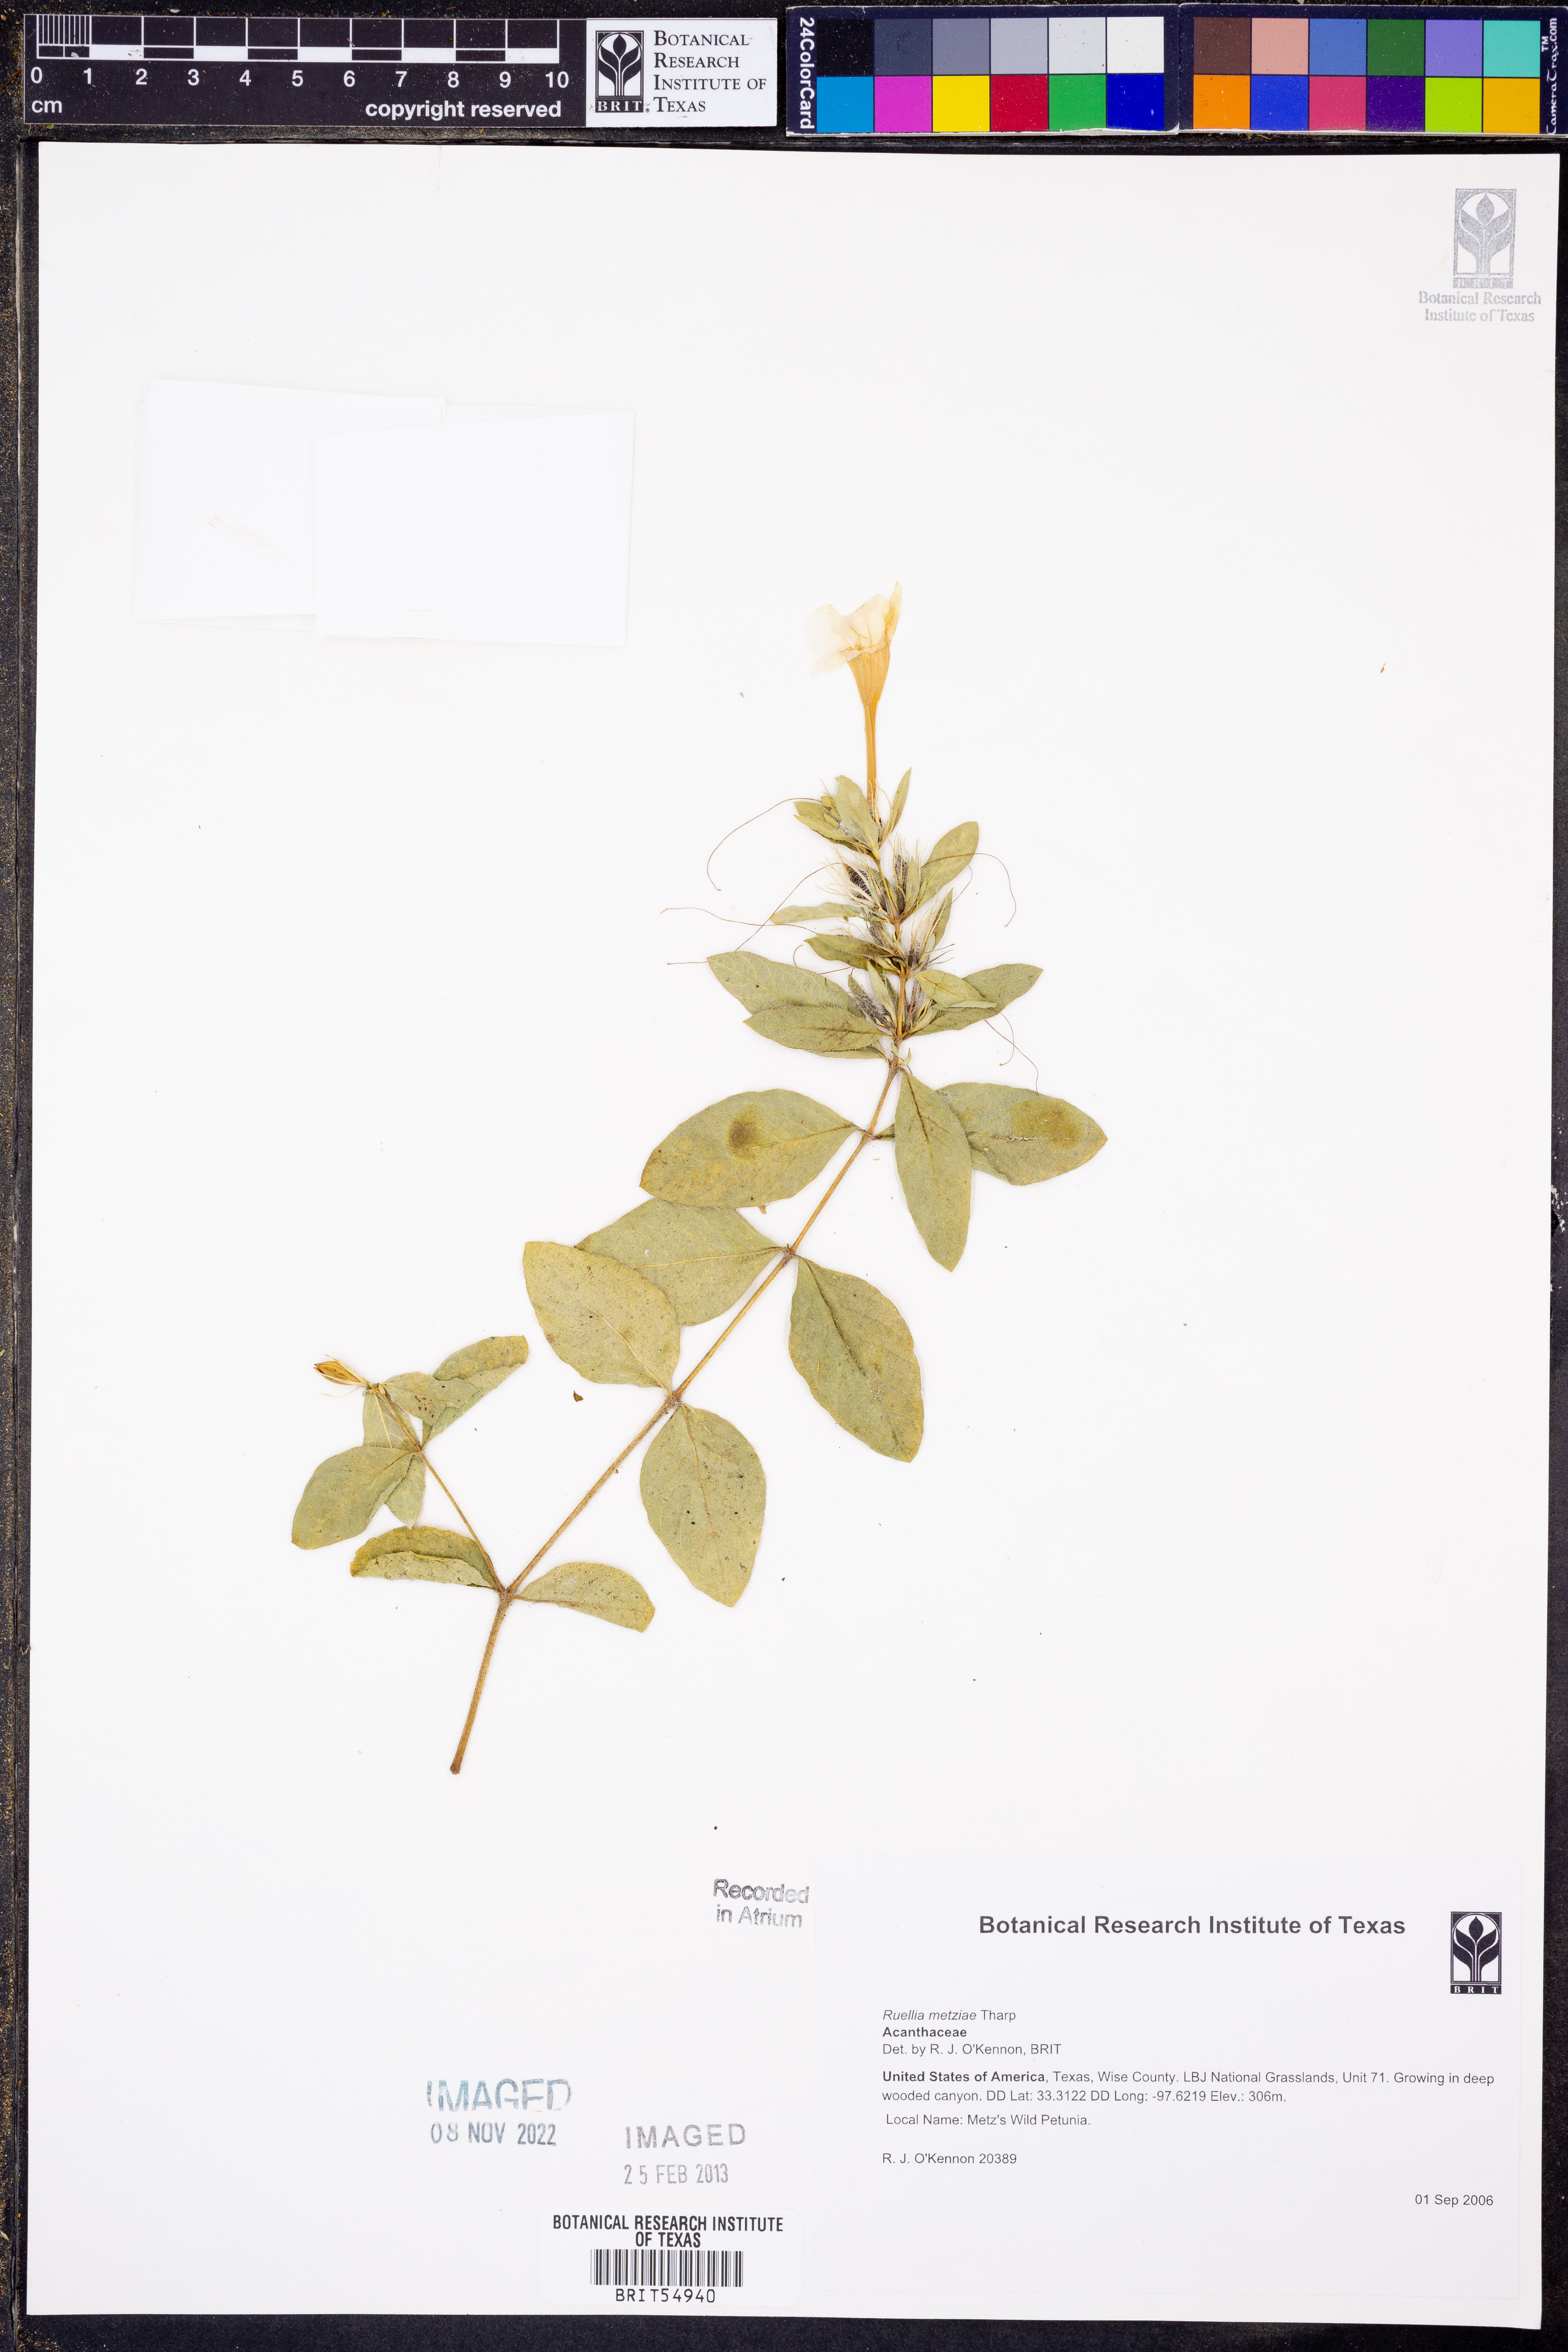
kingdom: Plantae
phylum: Tracheophyta
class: Magnoliopsida
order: Lamiales
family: Acanthaceae
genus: Ruellia
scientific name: Ruellia metziae
